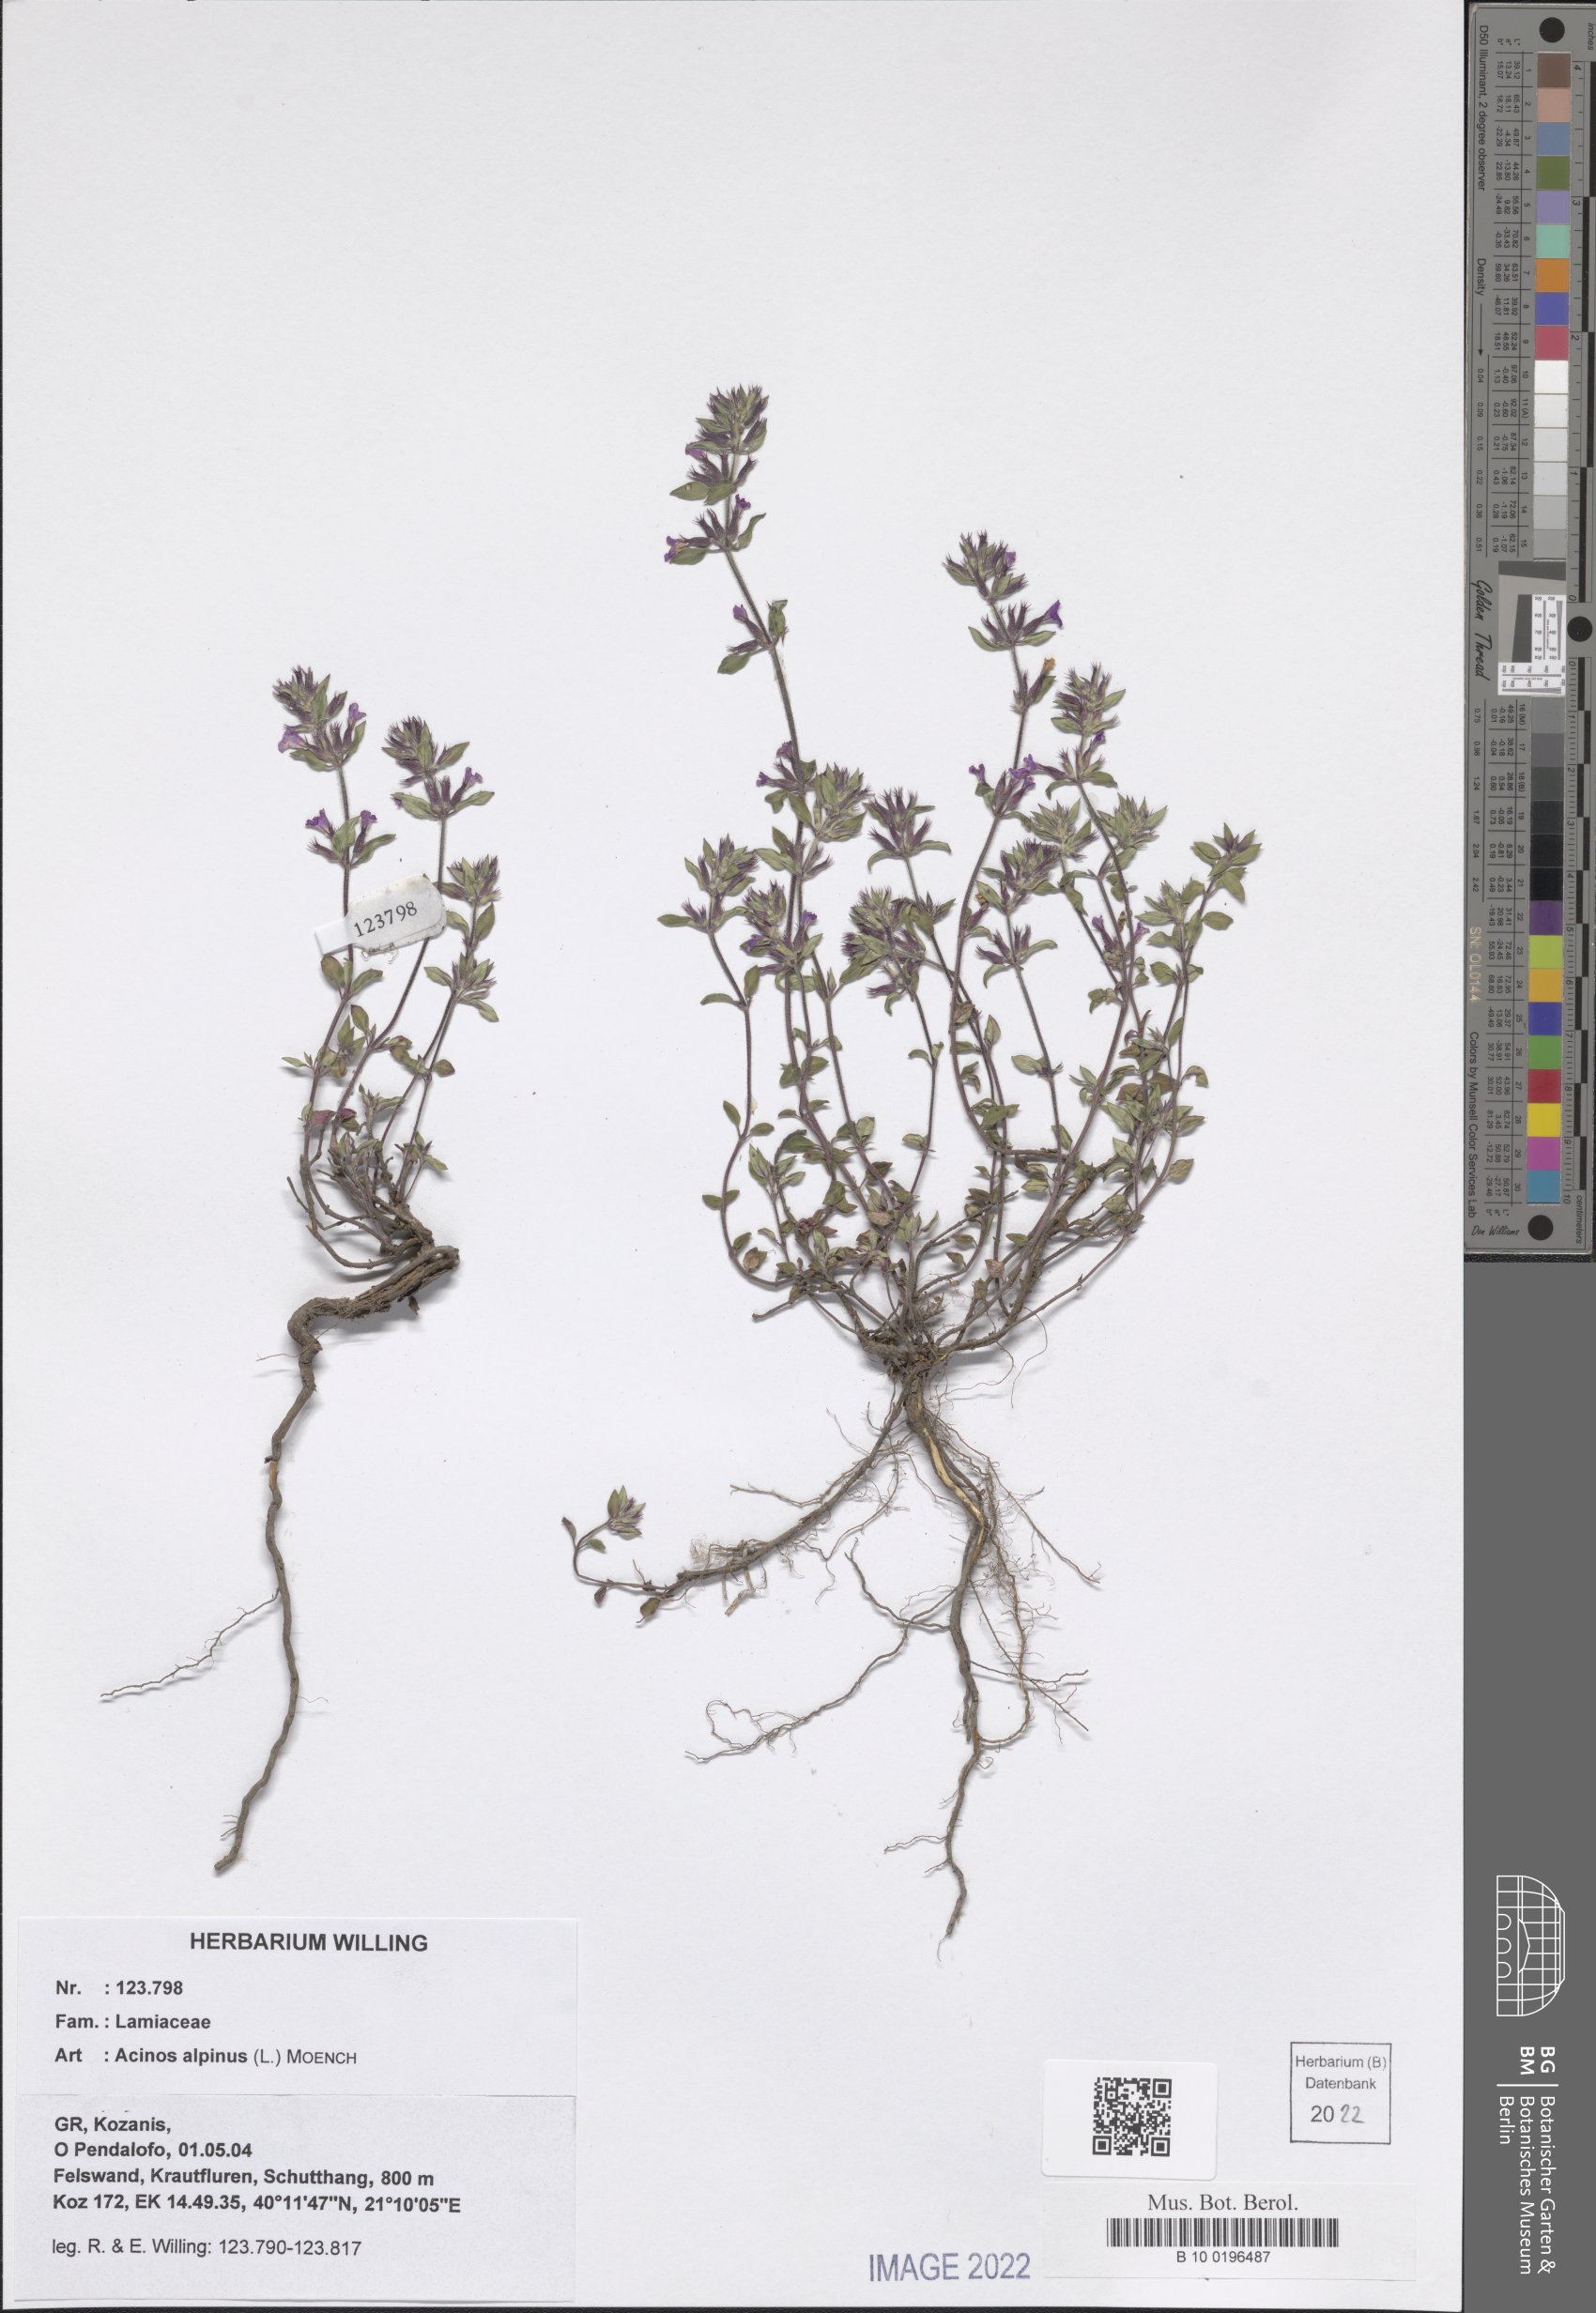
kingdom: Plantae
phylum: Tracheophyta
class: Magnoliopsida
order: Lamiales
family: Lamiaceae
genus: Clinopodium
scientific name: Clinopodium alpinum
